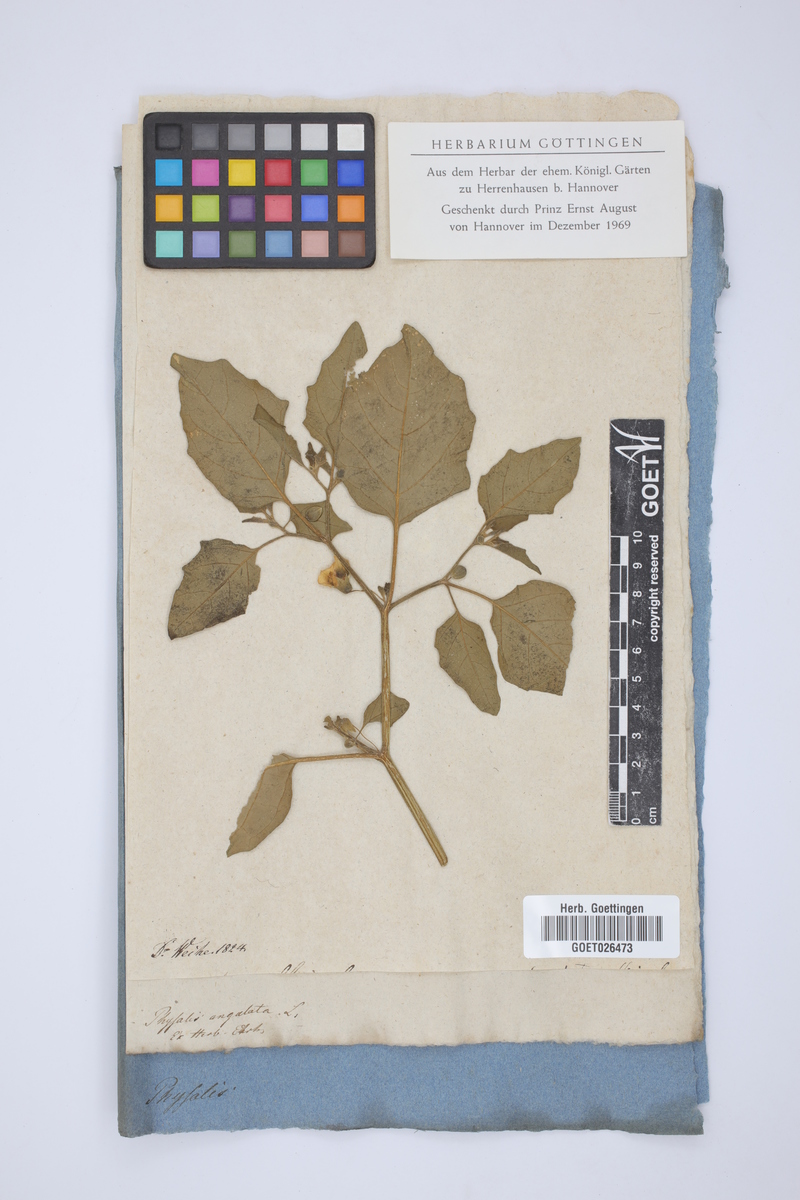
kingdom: Plantae
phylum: Tracheophyta
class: Magnoliopsida
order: Solanales
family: Solanaceae
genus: Physalis
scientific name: Physalis angulata
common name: Angular winter-cherry
